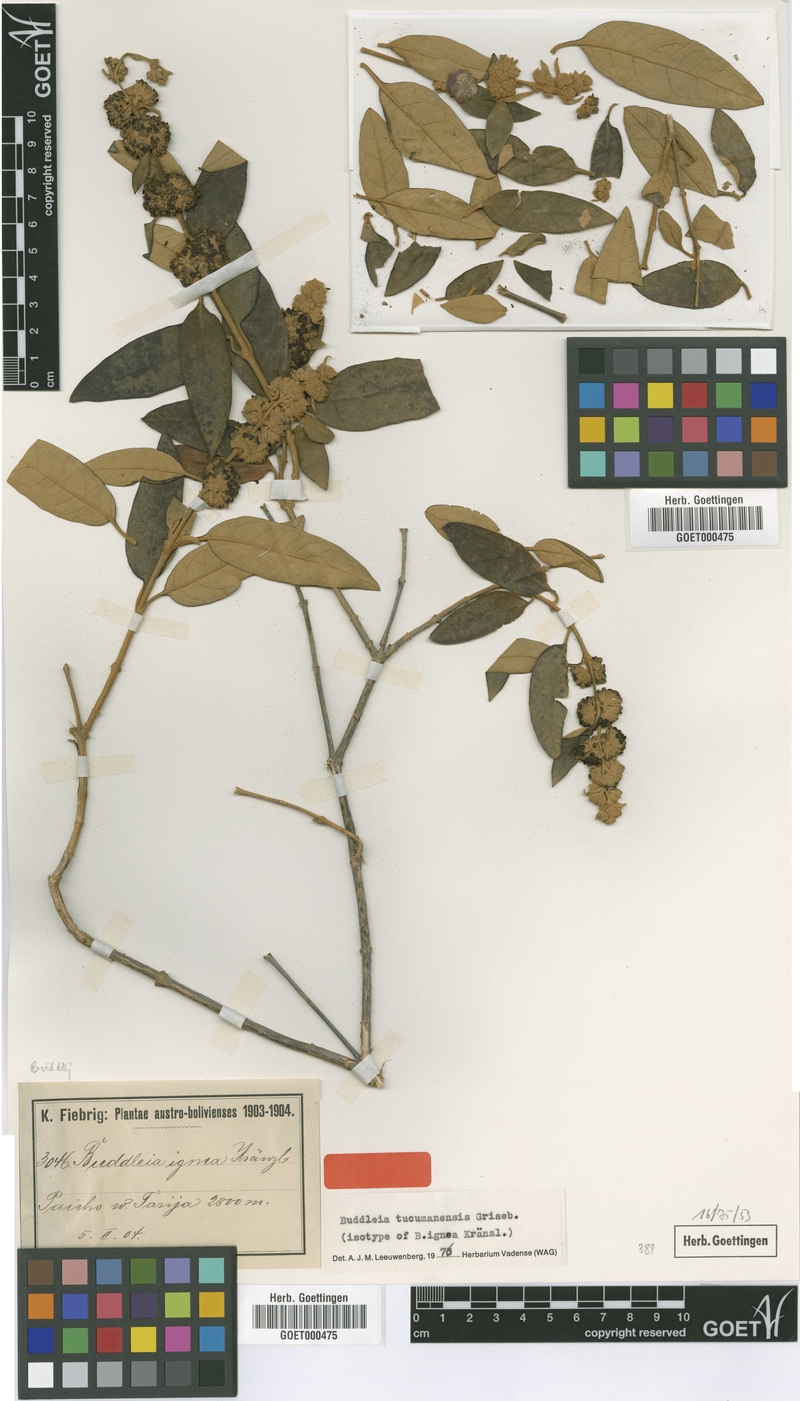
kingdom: Plantae
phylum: Tracheophyta
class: Magnoliopsida
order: Lamiales
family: Scrophulariaceae
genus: Buddleja
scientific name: Buddleja tucumanensis
